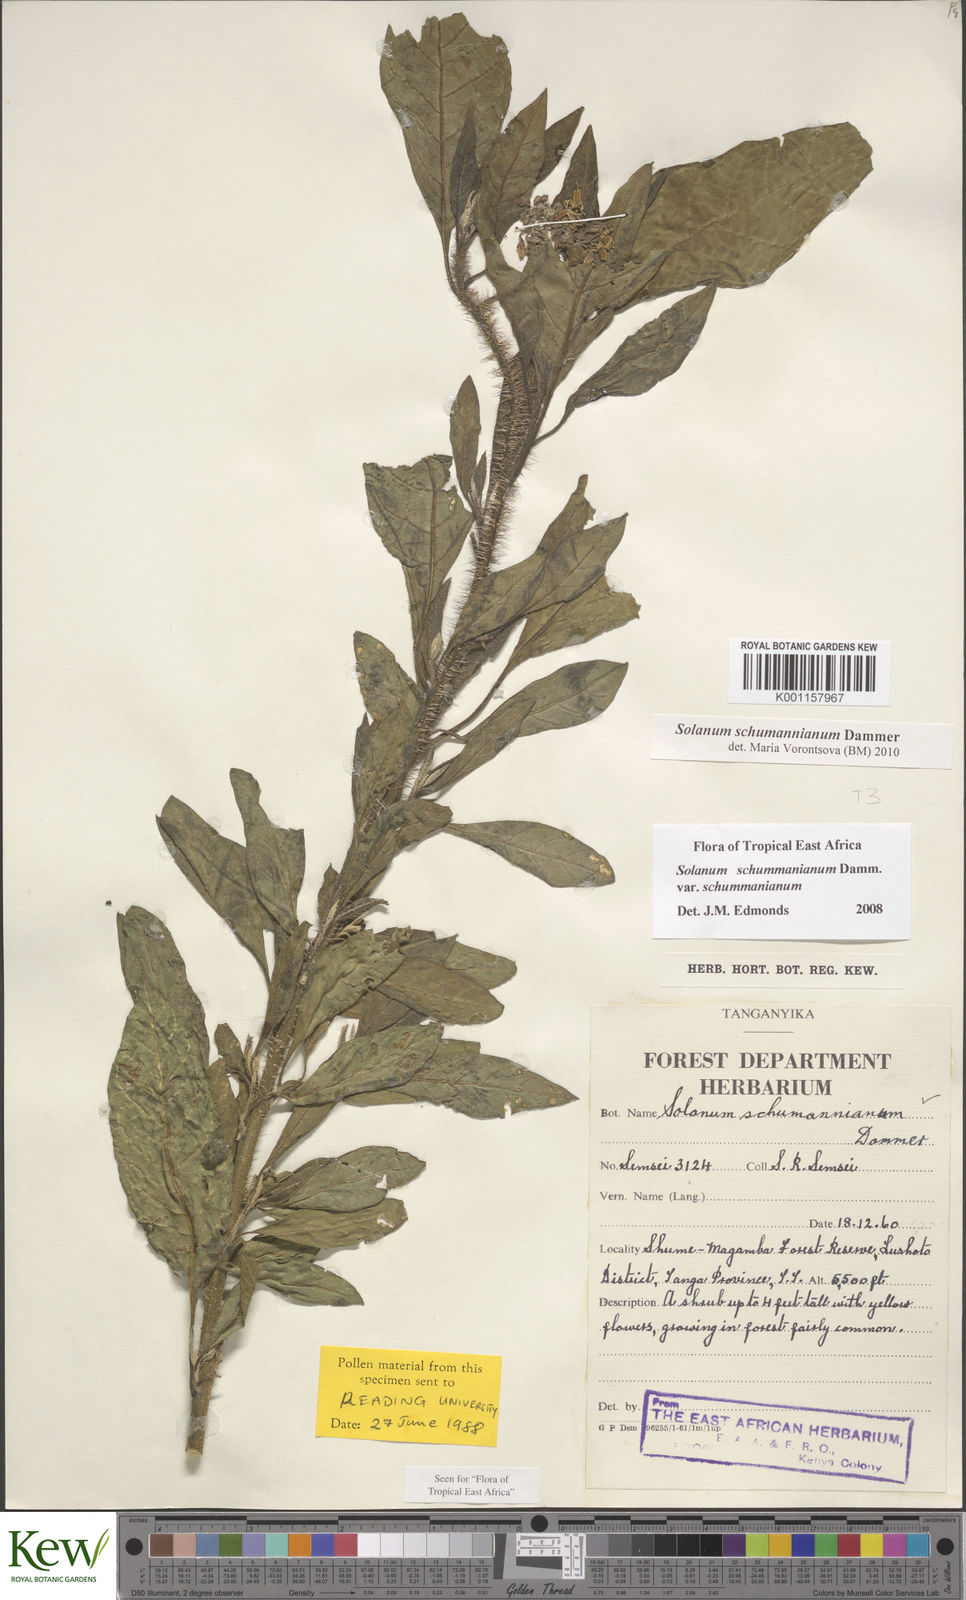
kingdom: Plantae
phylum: Tracheophyta
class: Magnoliopsida
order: Solanales
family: Solanaceae
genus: Solanum
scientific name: Solanum schumannianum
